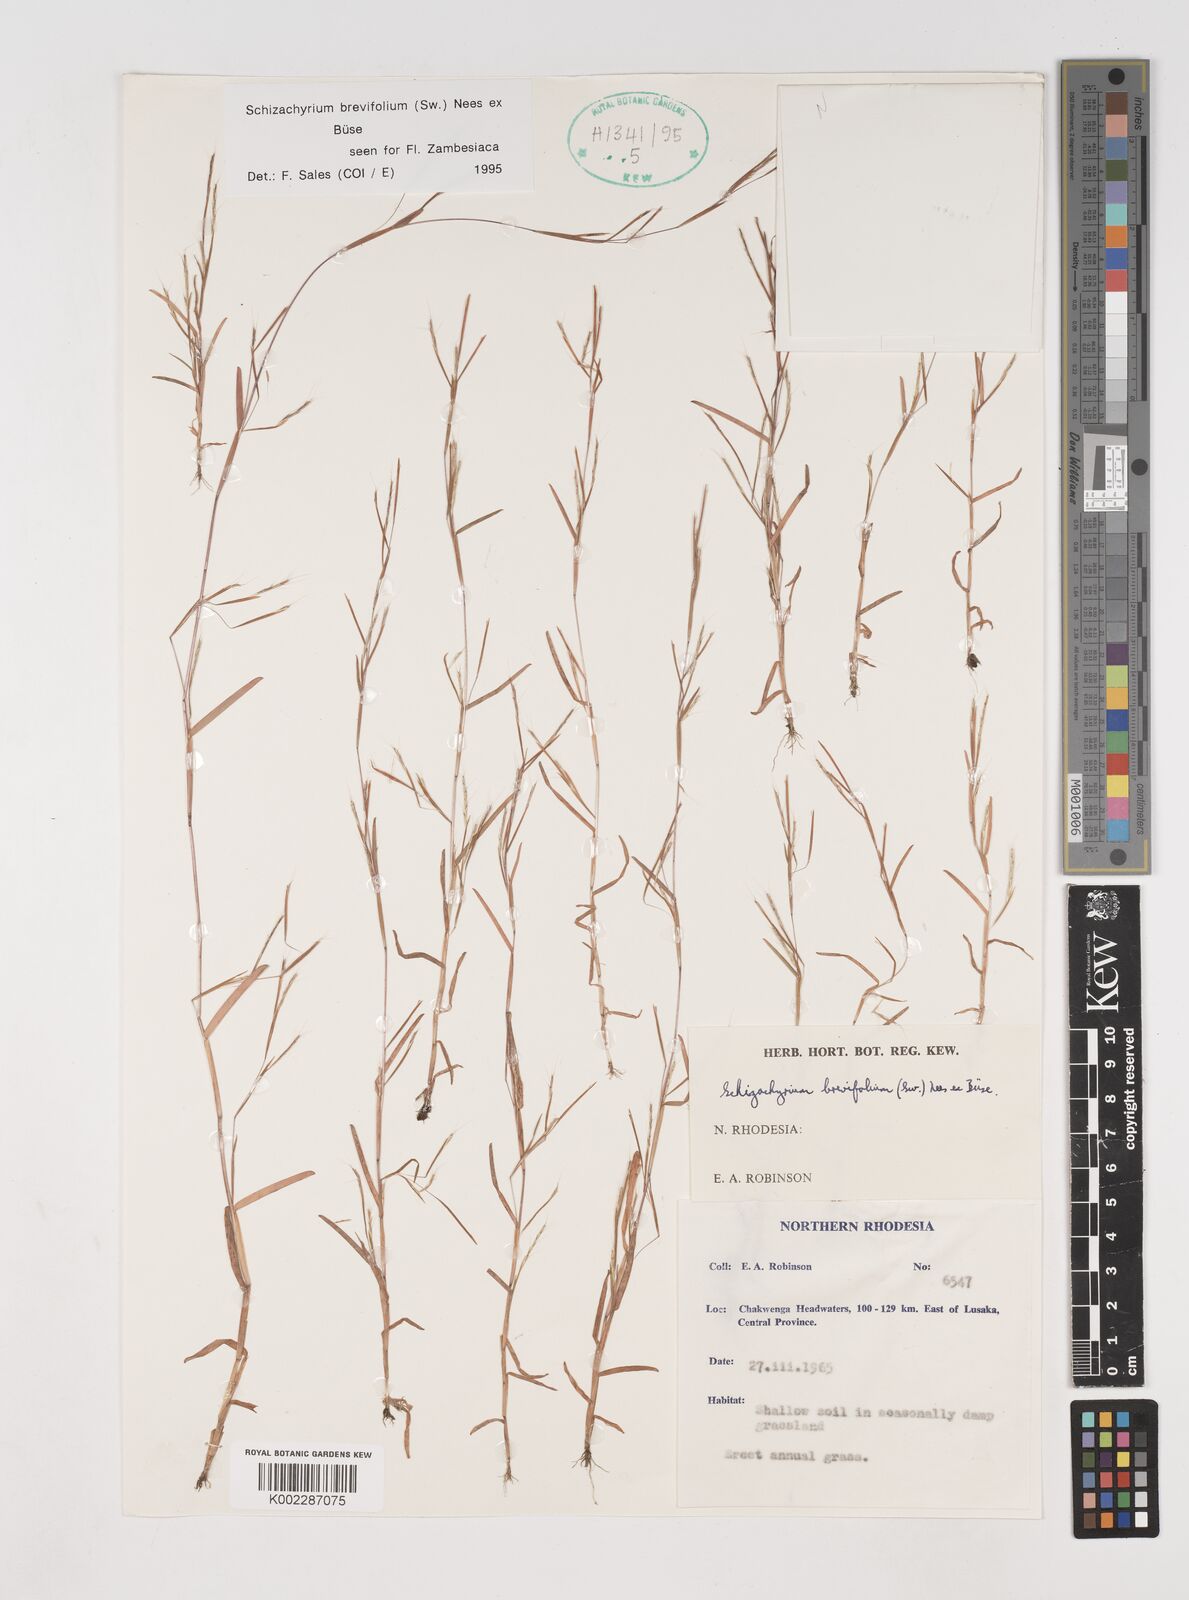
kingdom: Plantae
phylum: Tracheophyta
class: Liliopsida
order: Poales
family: Poaceae
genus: Schizachyrium
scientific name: Schizachyrium brevifolium
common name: Serillo dulce
